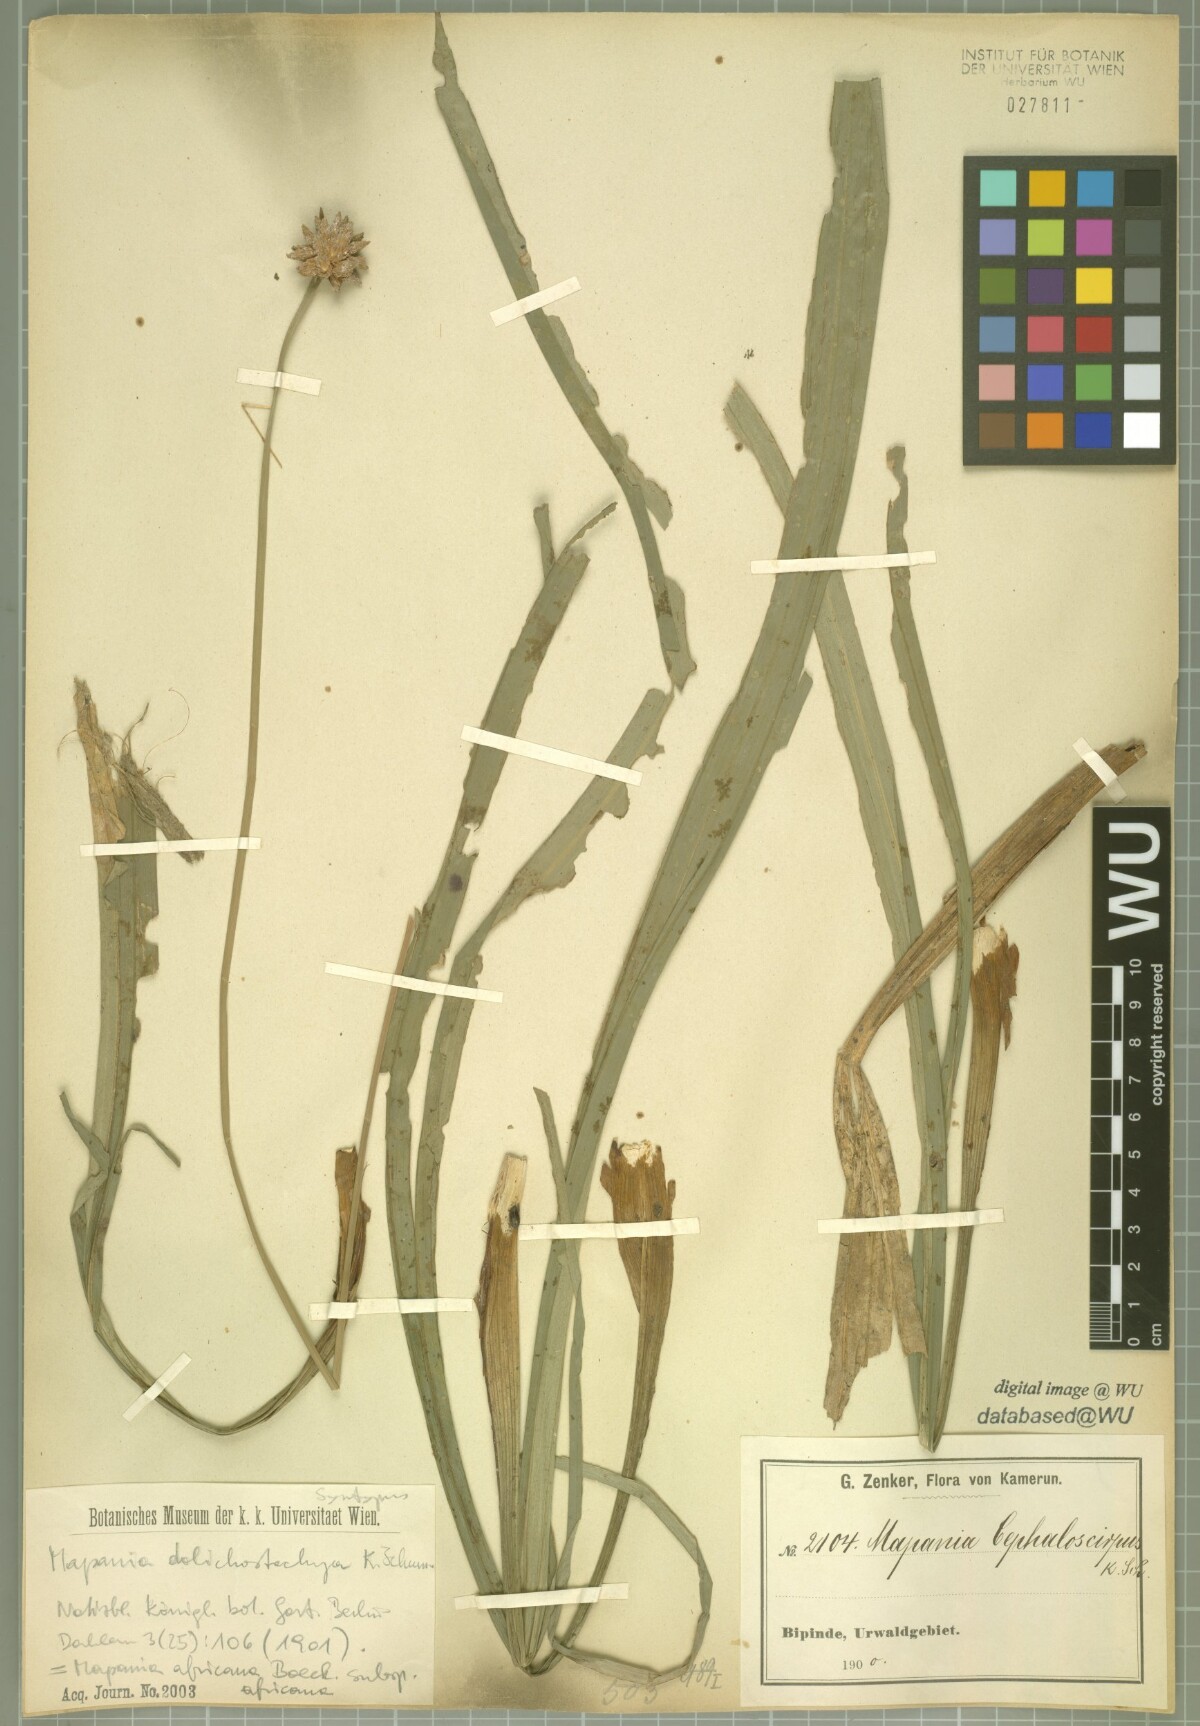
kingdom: Plantae
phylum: Tracheophyta
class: Liliopsida
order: Poales
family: Cyperaceae
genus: Mapania
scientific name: Mapania africana
